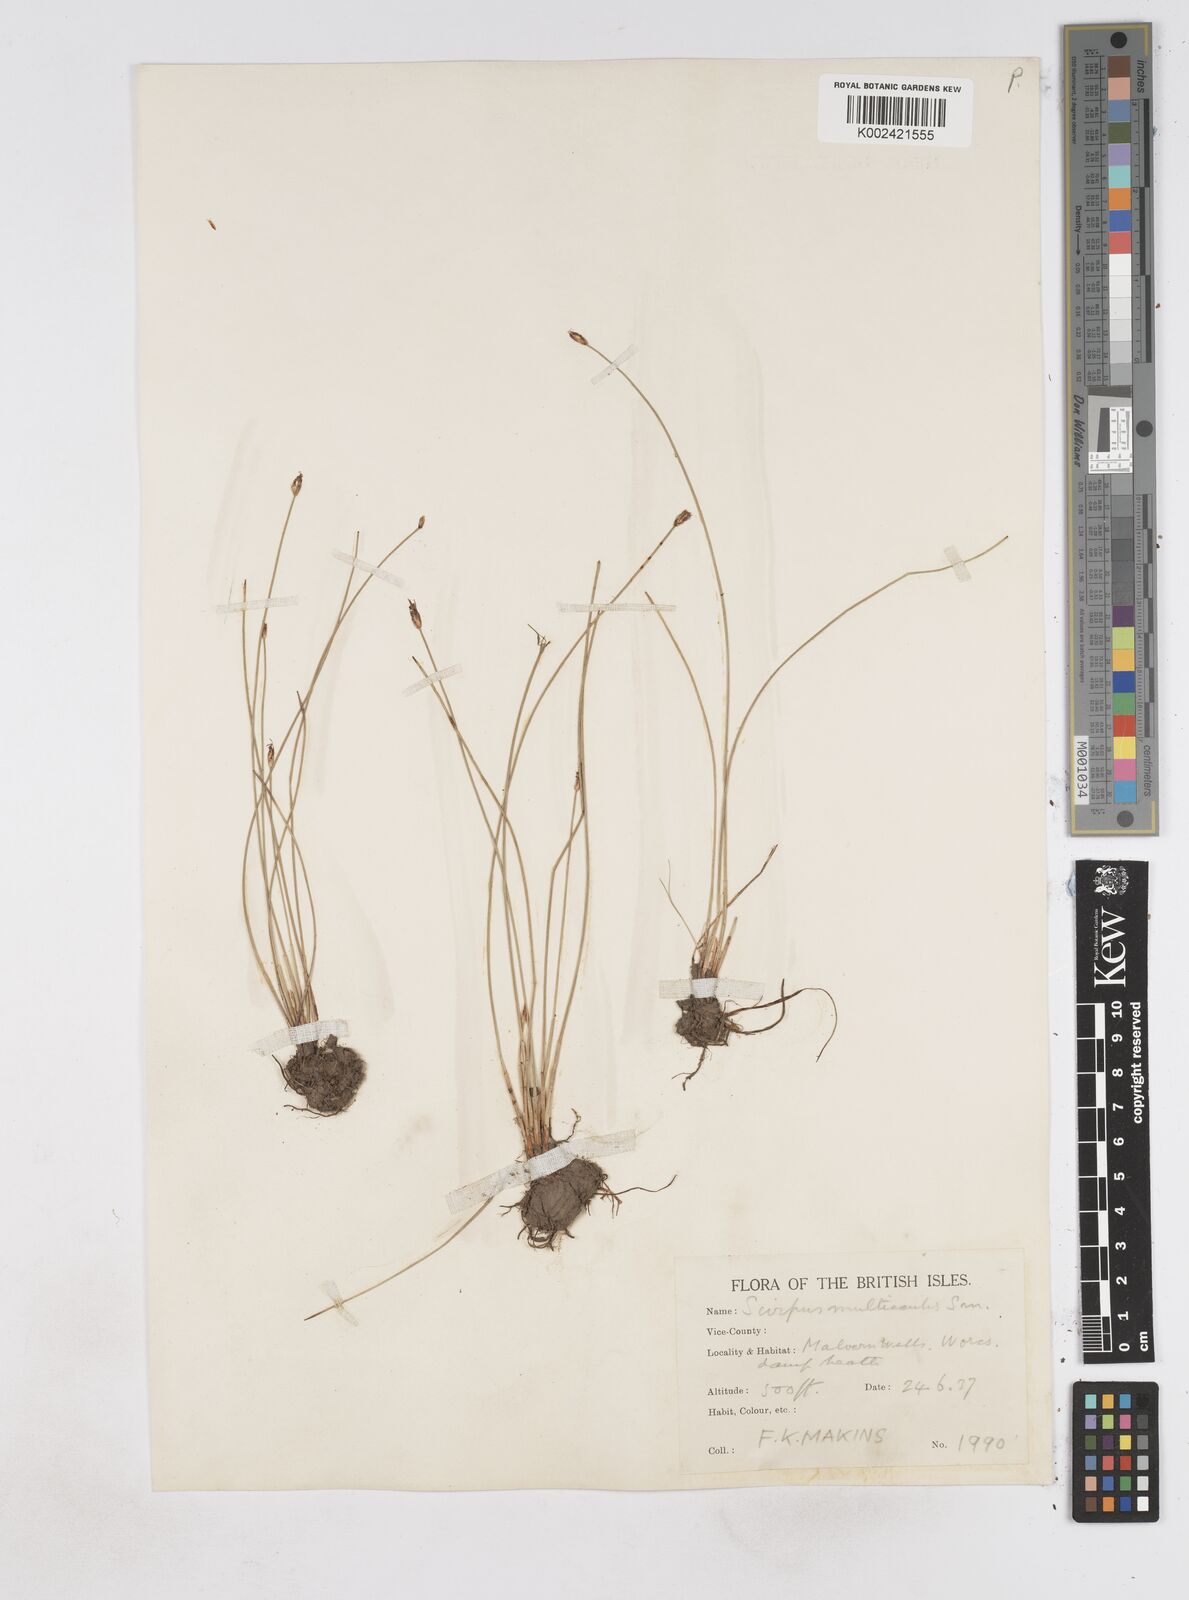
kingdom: Plantae
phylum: Tracheophyta
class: Liliopsida
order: Poales
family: Cyperaceae
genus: Eleocharis
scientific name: Eleocharis multicaulis
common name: Many-stalked spike-rush
